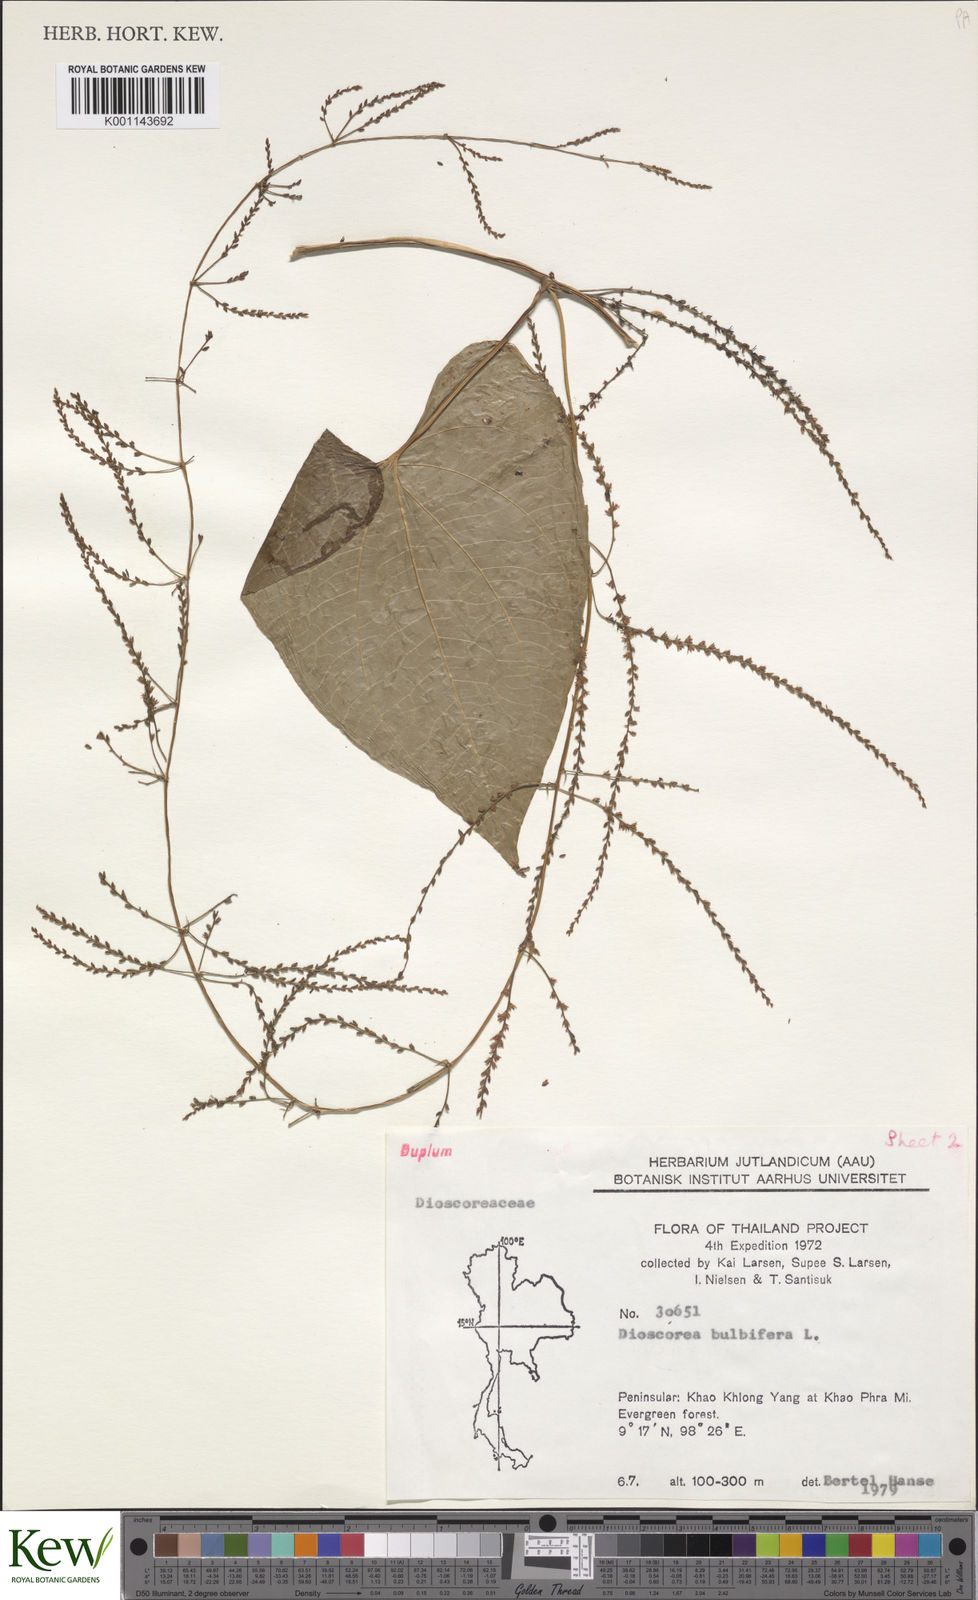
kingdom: Plantae
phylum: Tracheophyta
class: Liliopsida
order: Dioscoreales
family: Dioscoreaceae
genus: Dioscorea
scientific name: Dioscorea bulbifera
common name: Air yam
